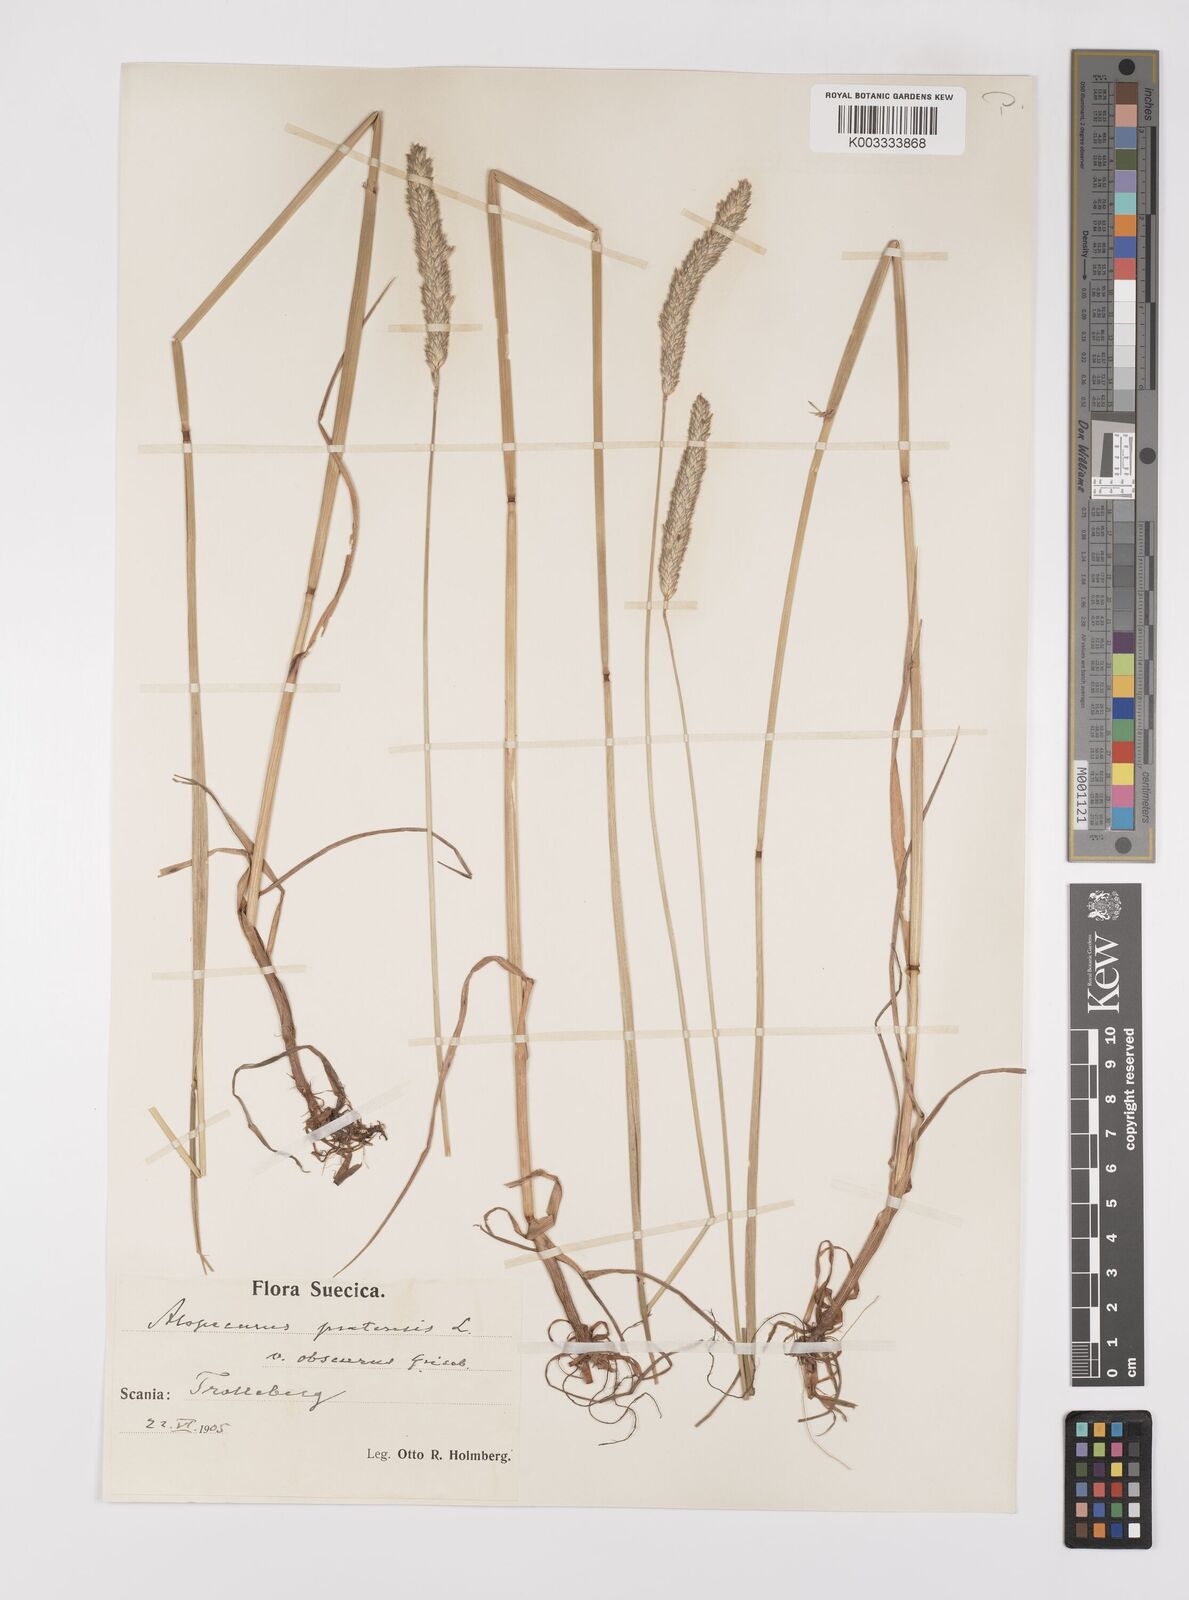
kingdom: Plantae
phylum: Tracheophyta
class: Liliopsida
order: Poales
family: Poaceae
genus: Alopecurus
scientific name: Alopecurus pratensis
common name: Meadow foxtail
